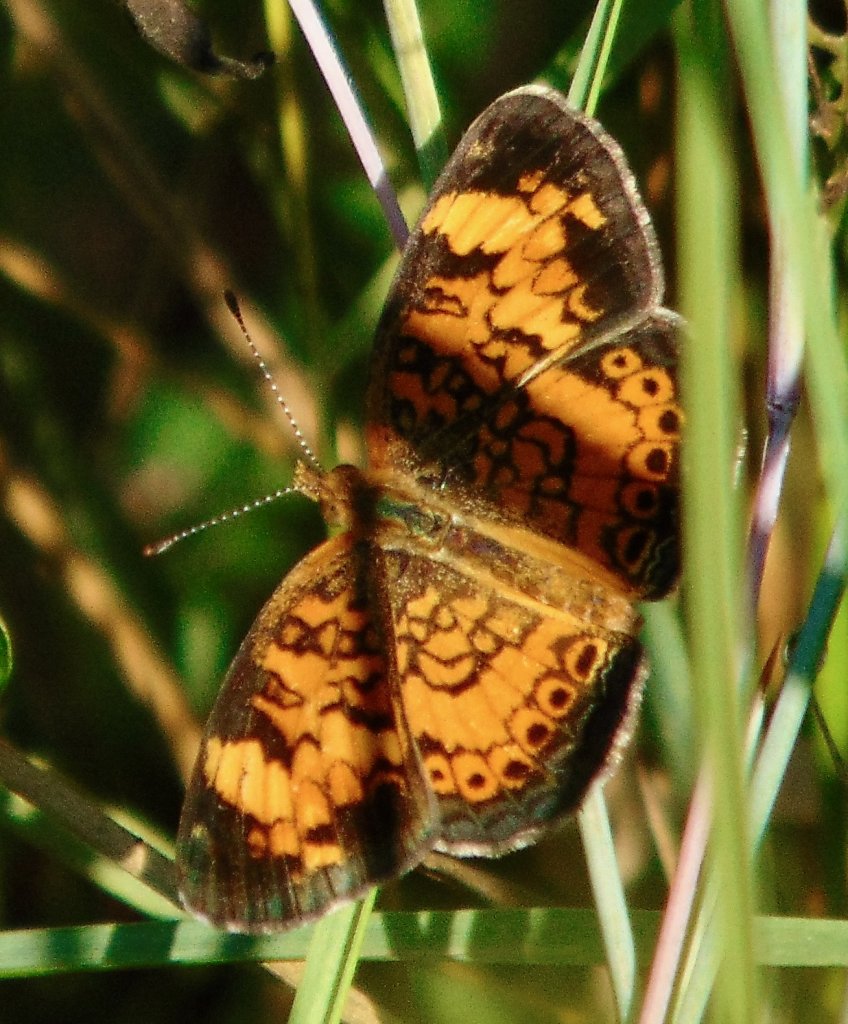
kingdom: Animalia
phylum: Arthropoda
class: Insecta
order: Lepidoptera
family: Nymphalidae
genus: Phyciodes
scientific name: Phyciodes tharos
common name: Pearl Crescent
